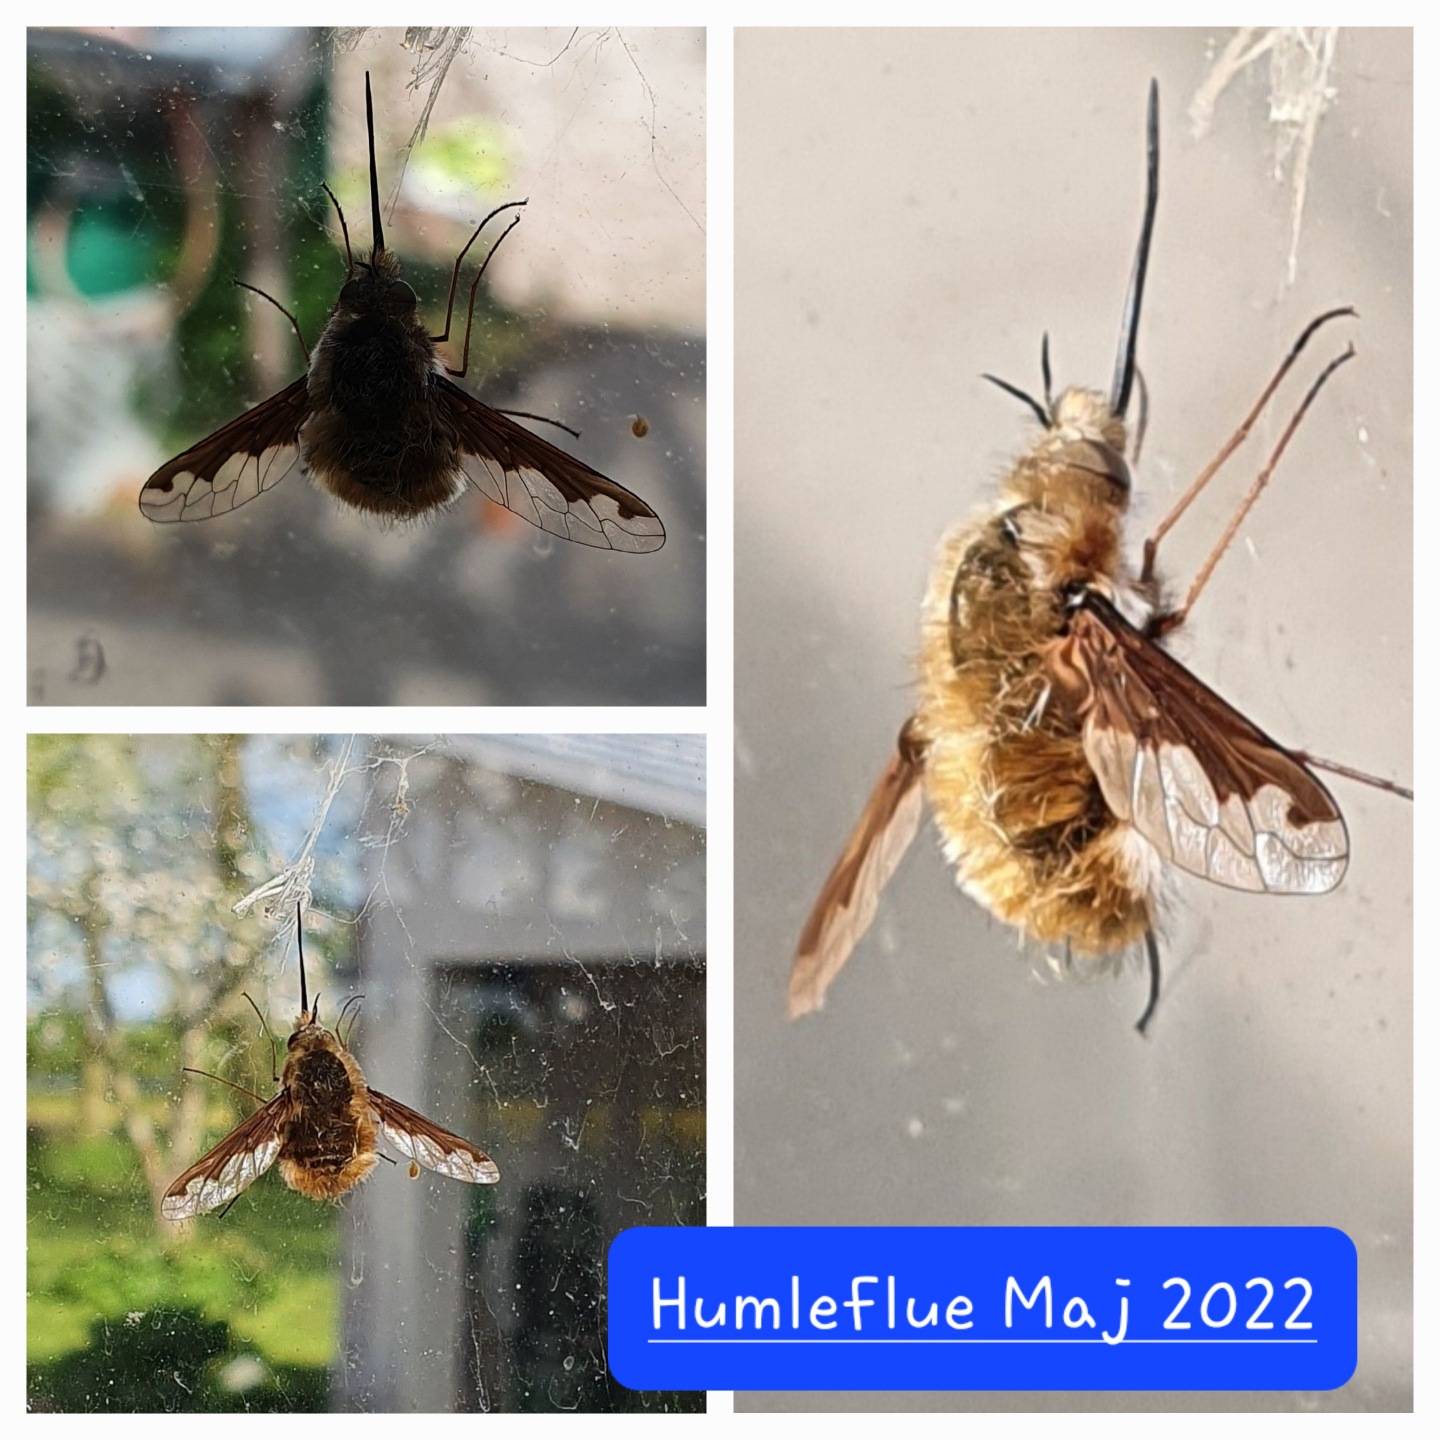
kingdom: Animalia
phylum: Arthropoda
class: Insecta
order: Diptera
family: Bombyliidae
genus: Bombylius
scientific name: Bombylius major
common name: Stor humleflue
